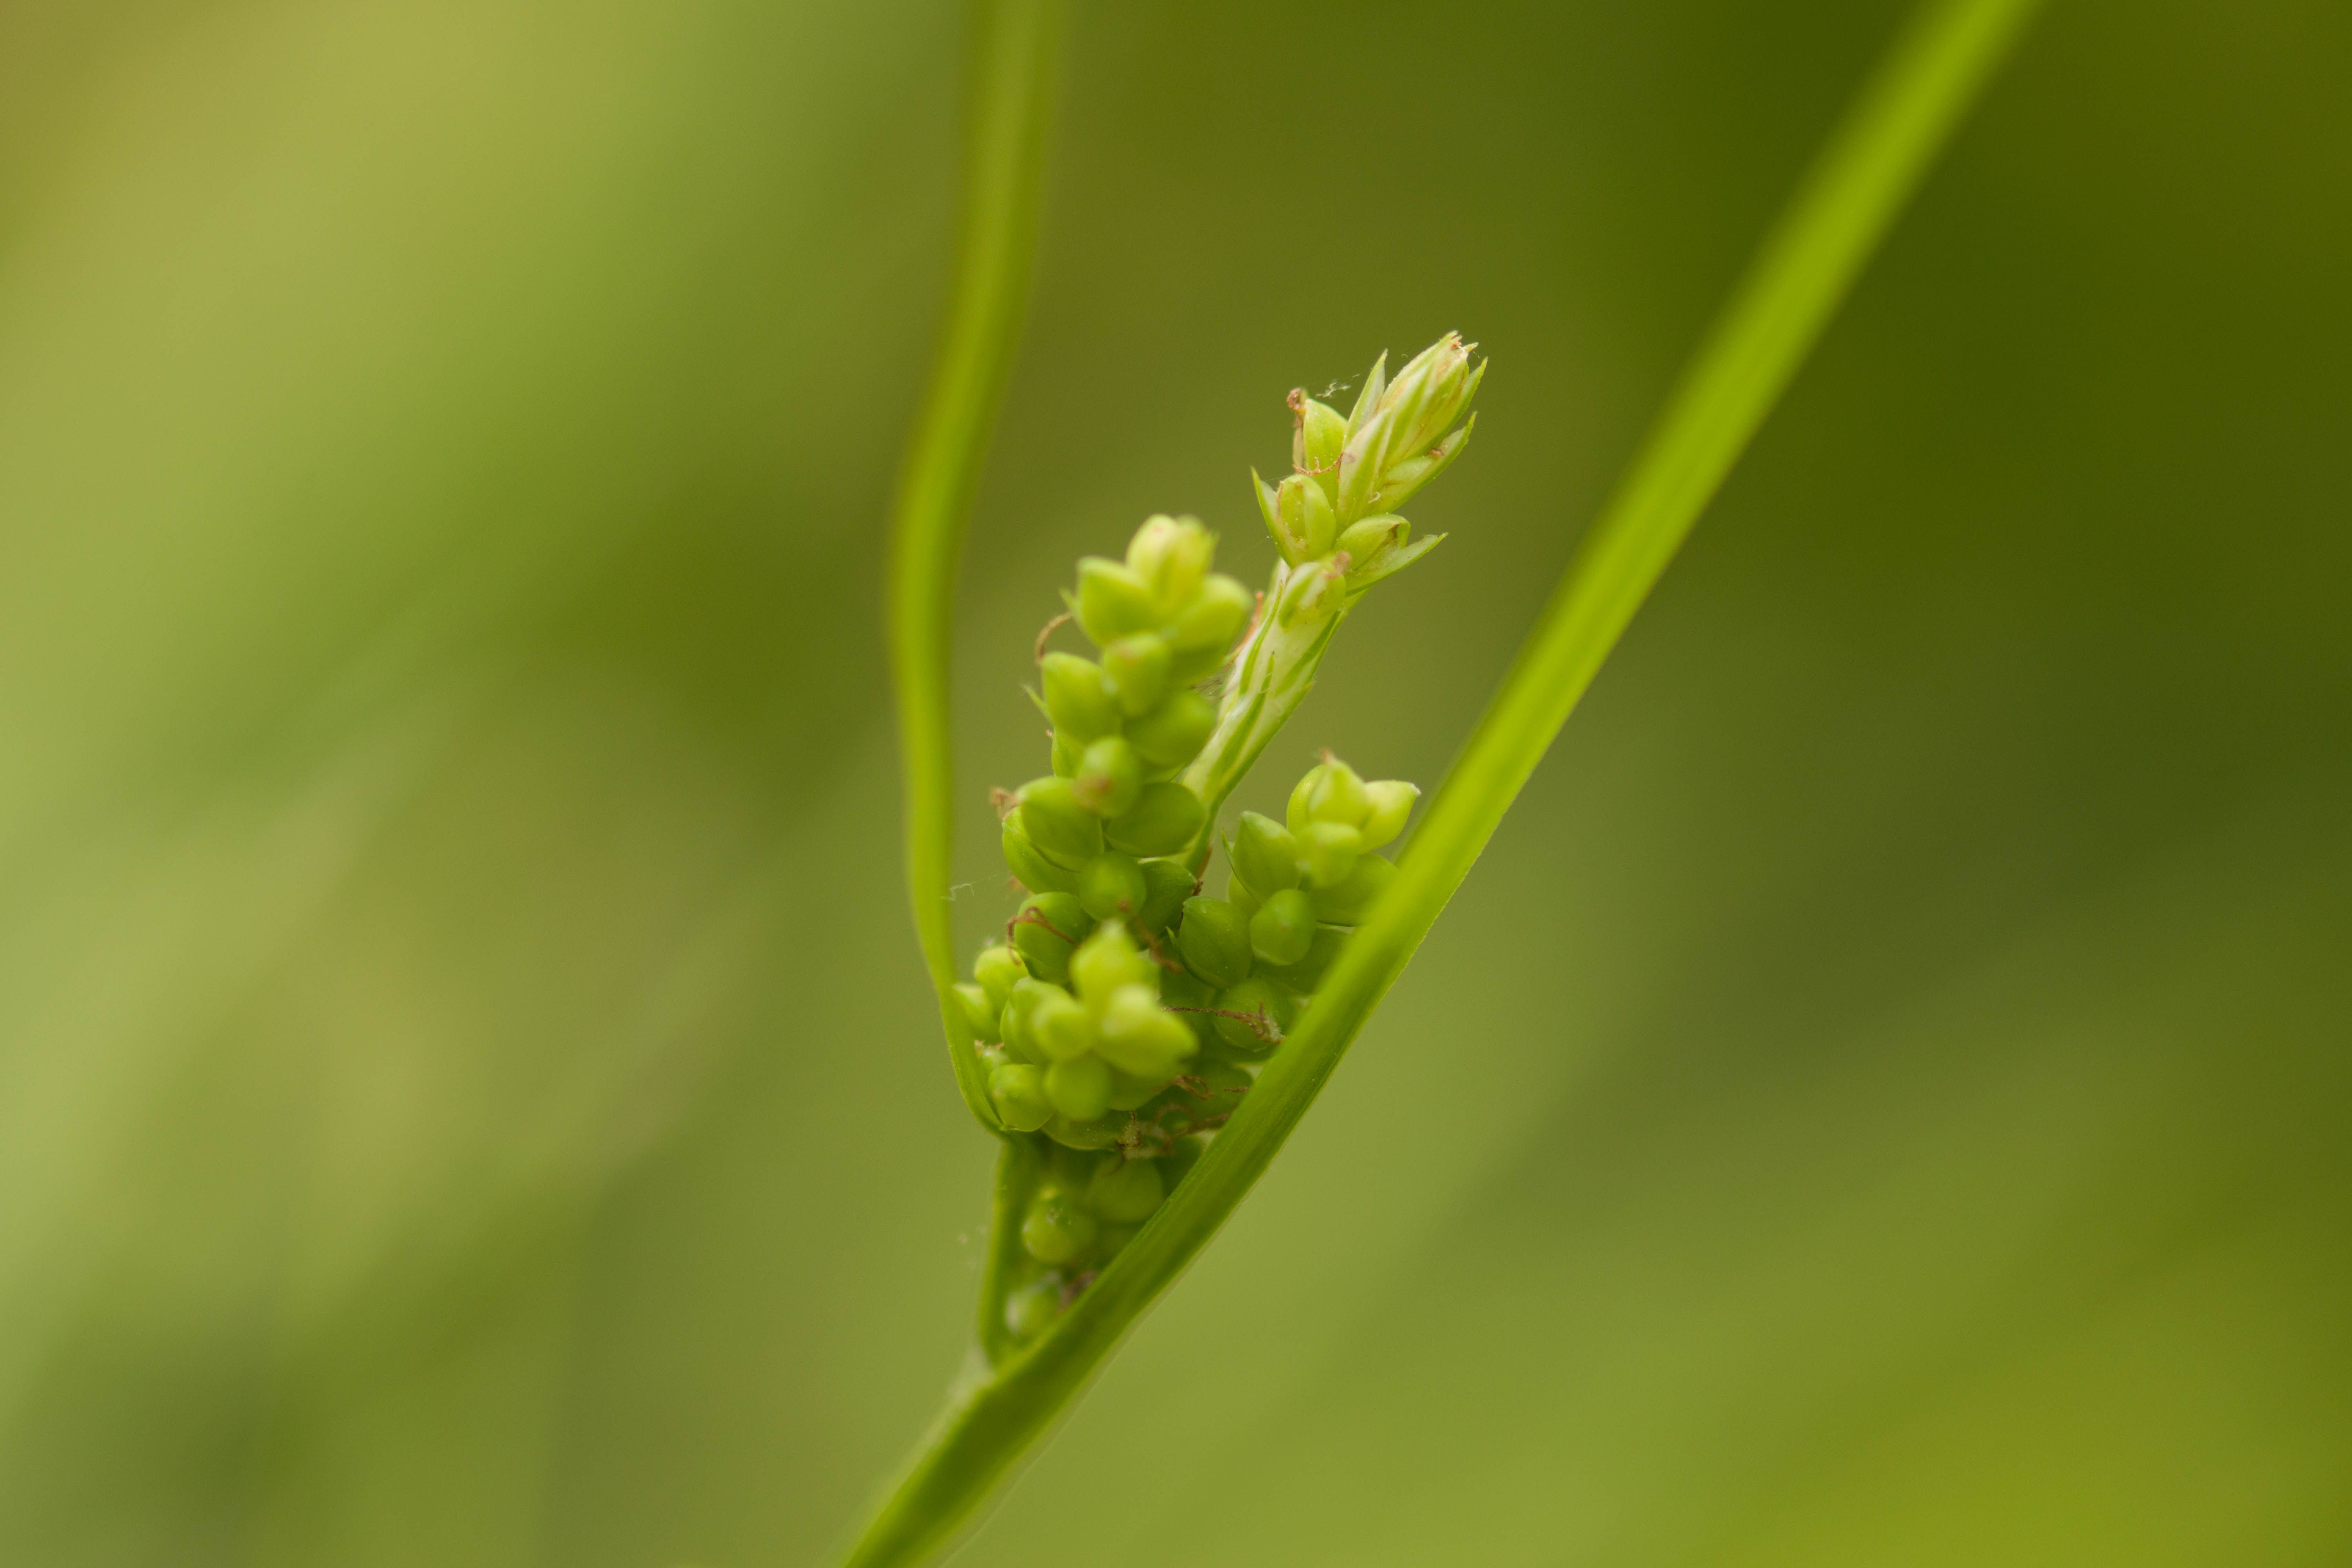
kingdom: Plantae
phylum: Tracheophyta
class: Liliopsida
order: Poales
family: Cyperaceae
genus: Carex
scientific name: Carex blanda
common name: Bland sedge
